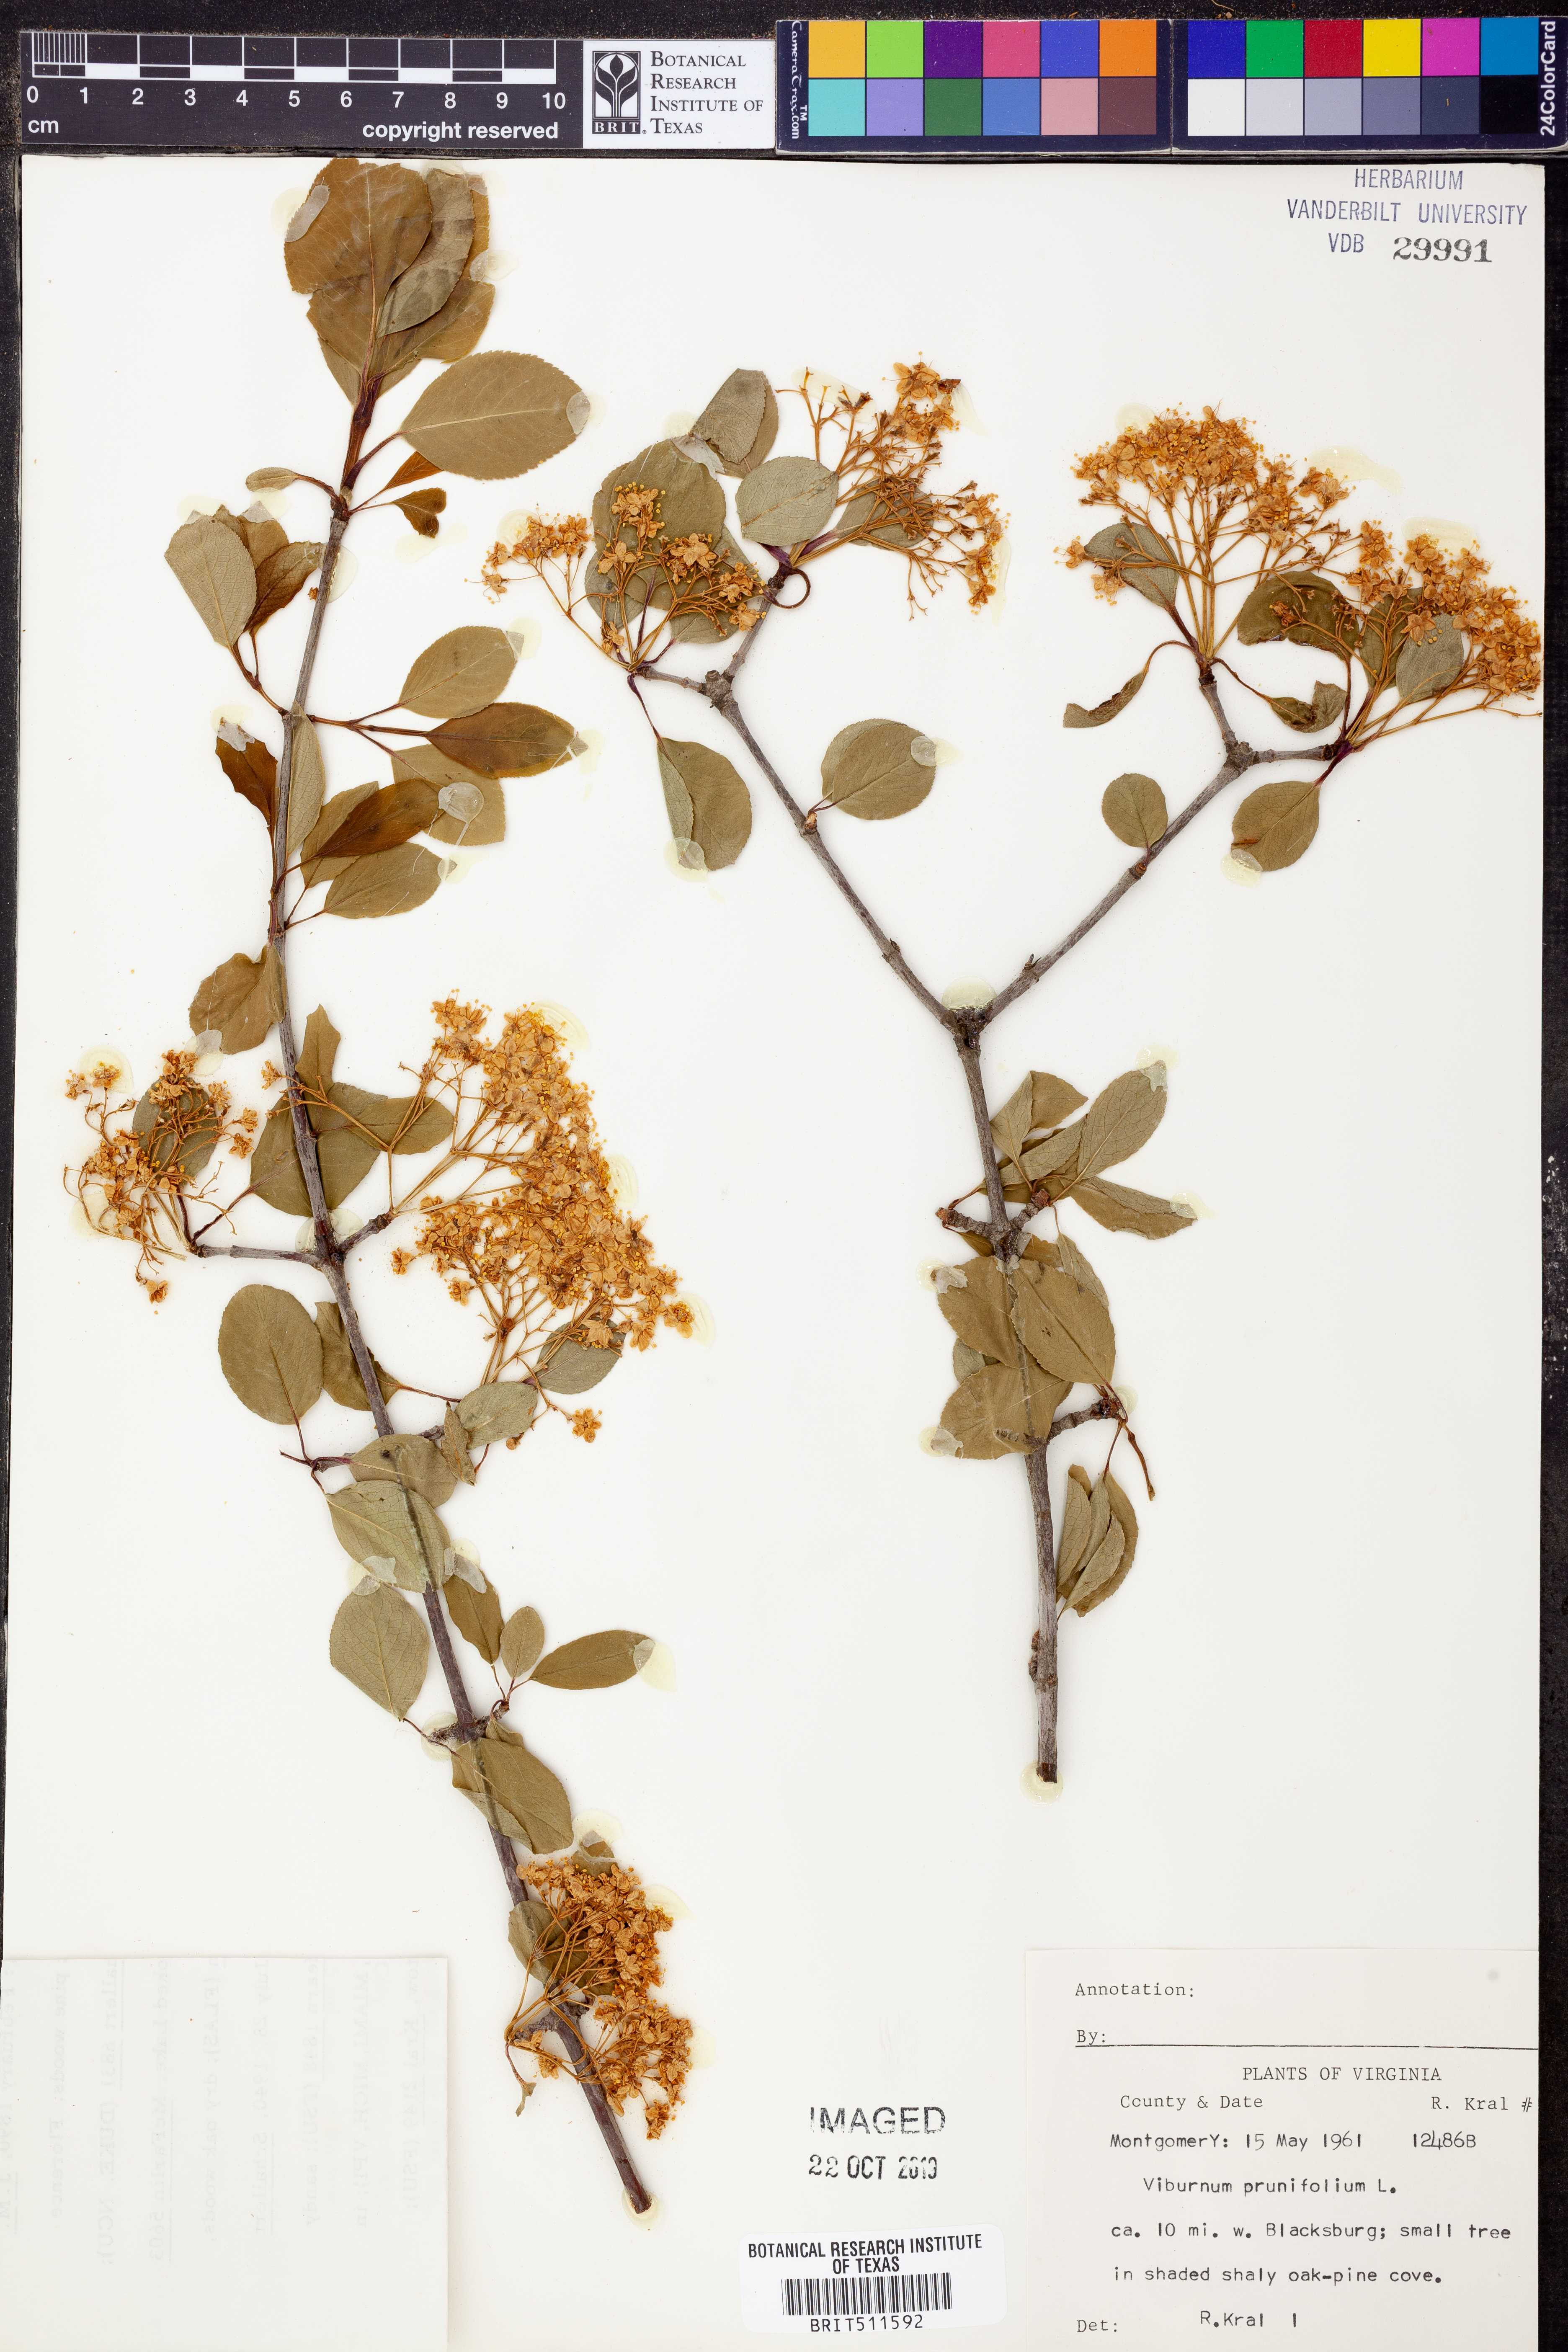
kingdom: Plantae
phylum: Tracheophyta
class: Magnoliopsida
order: Dipsacales
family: Viburnaceae
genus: Viburnum
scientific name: Viburnum prunifolium
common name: Black haw
